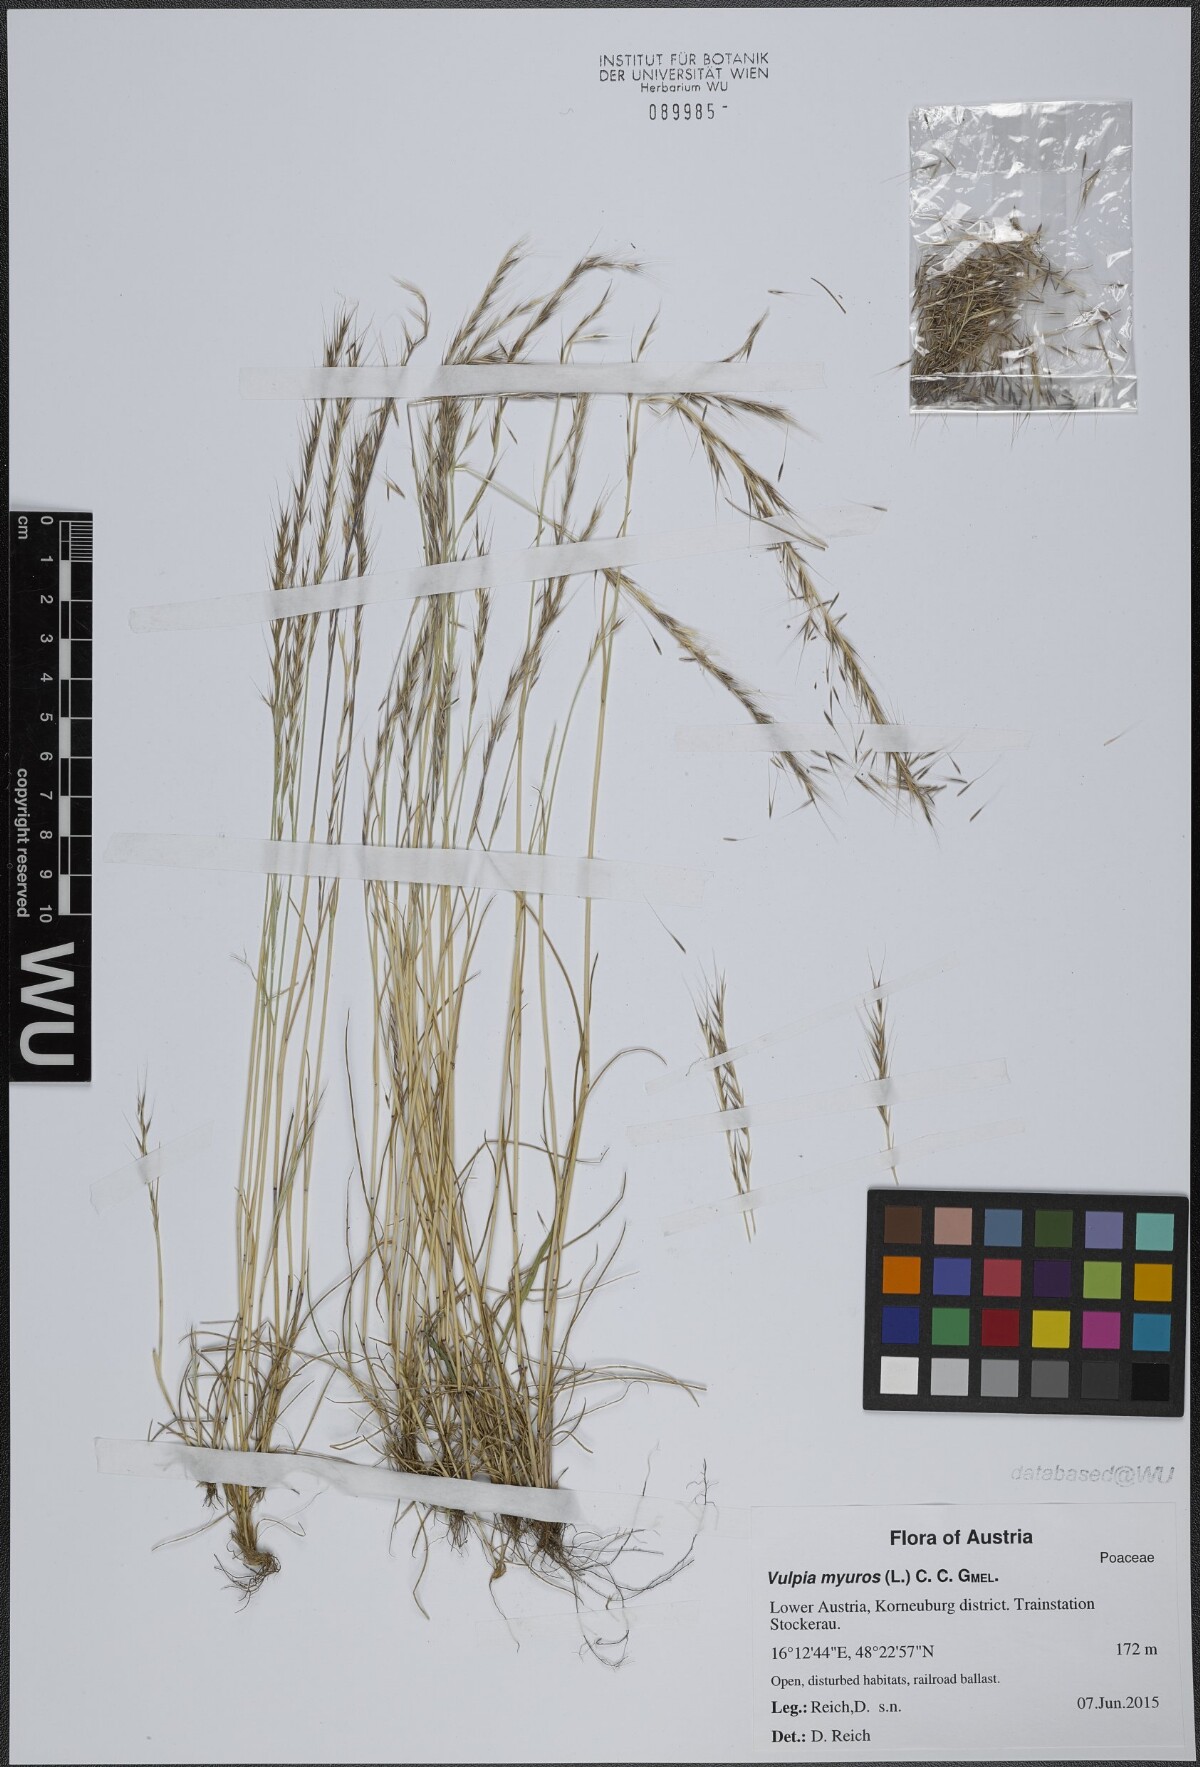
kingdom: Plantae
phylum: Tracheophyta
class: Liliopsida
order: Poales
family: Poaceae
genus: Festuca
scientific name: Festuca myuros
